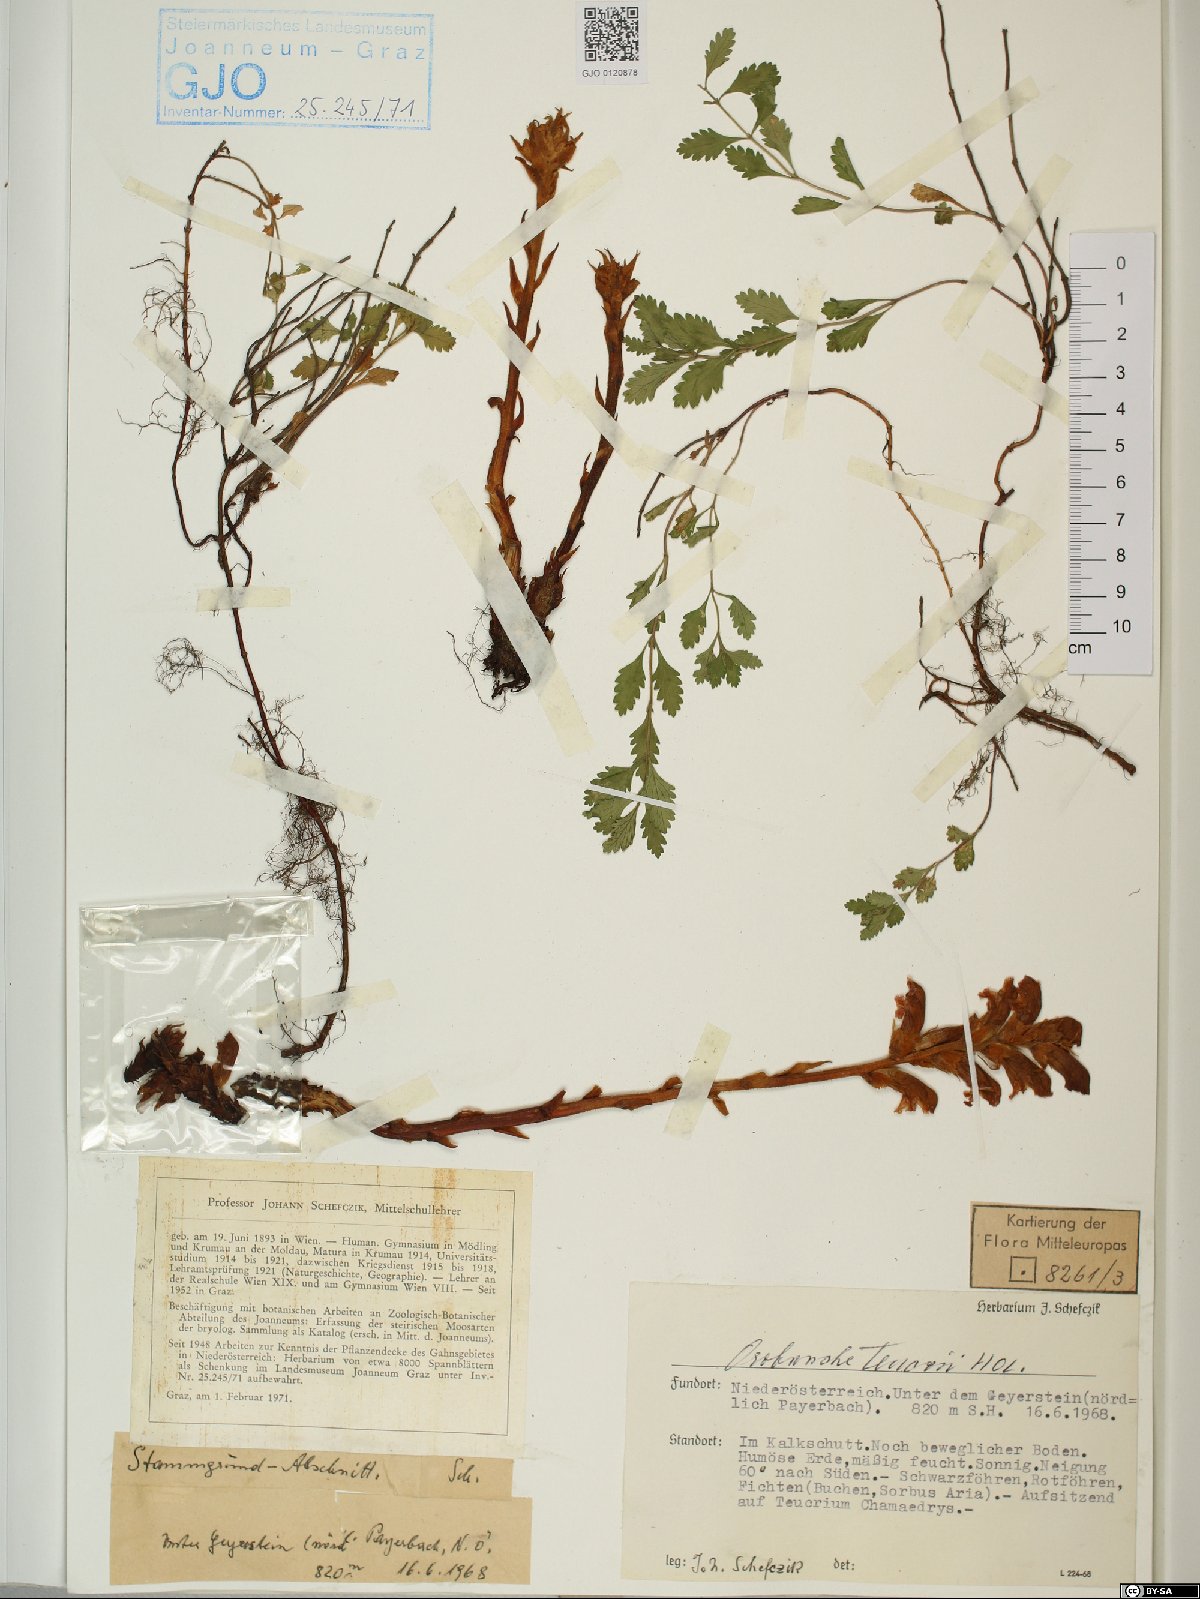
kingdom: Plantae
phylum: Tracheophyta
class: Magnoliopsida
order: Lamiales
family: Orobanchaceae
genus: Orobanche
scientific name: Orobanche teucrii
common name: Germander broomrape
